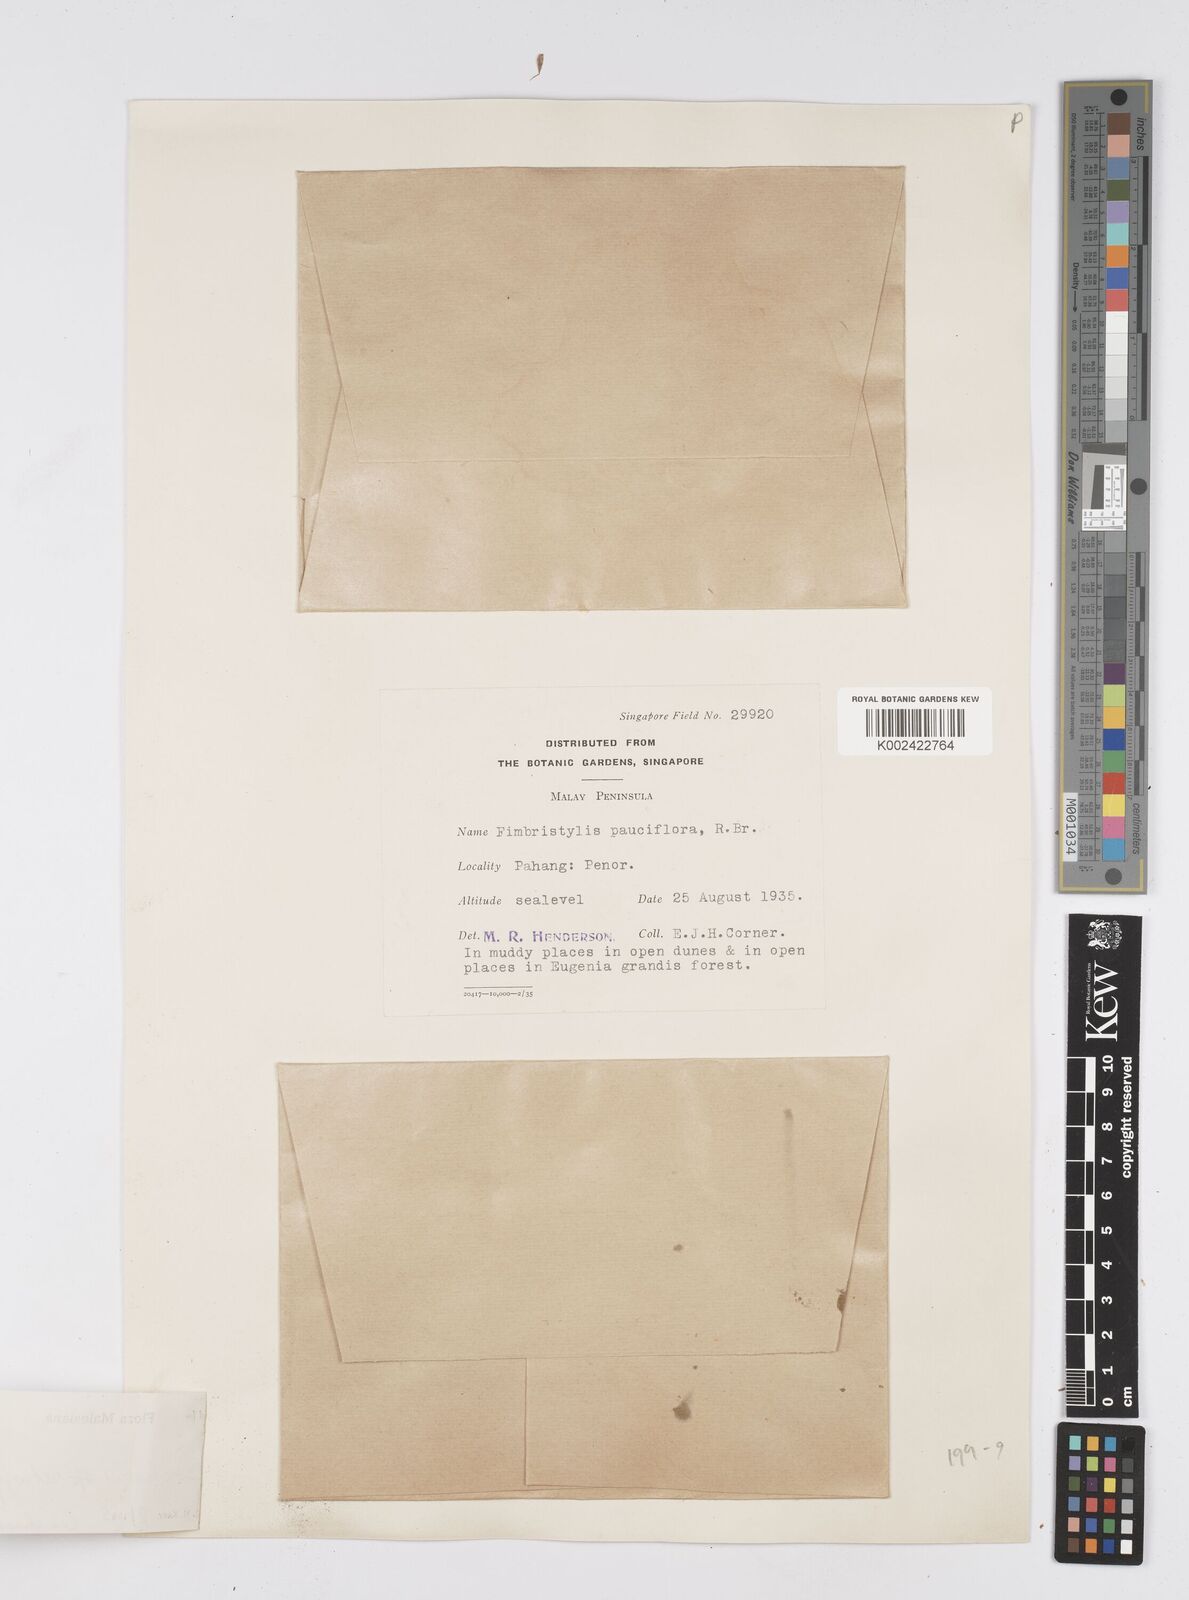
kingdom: Plantae
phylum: Tracheophyta
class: Liliopsida
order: Poales
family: Cyperaceae
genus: Eleocharis
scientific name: Eleocharis retroflexa
